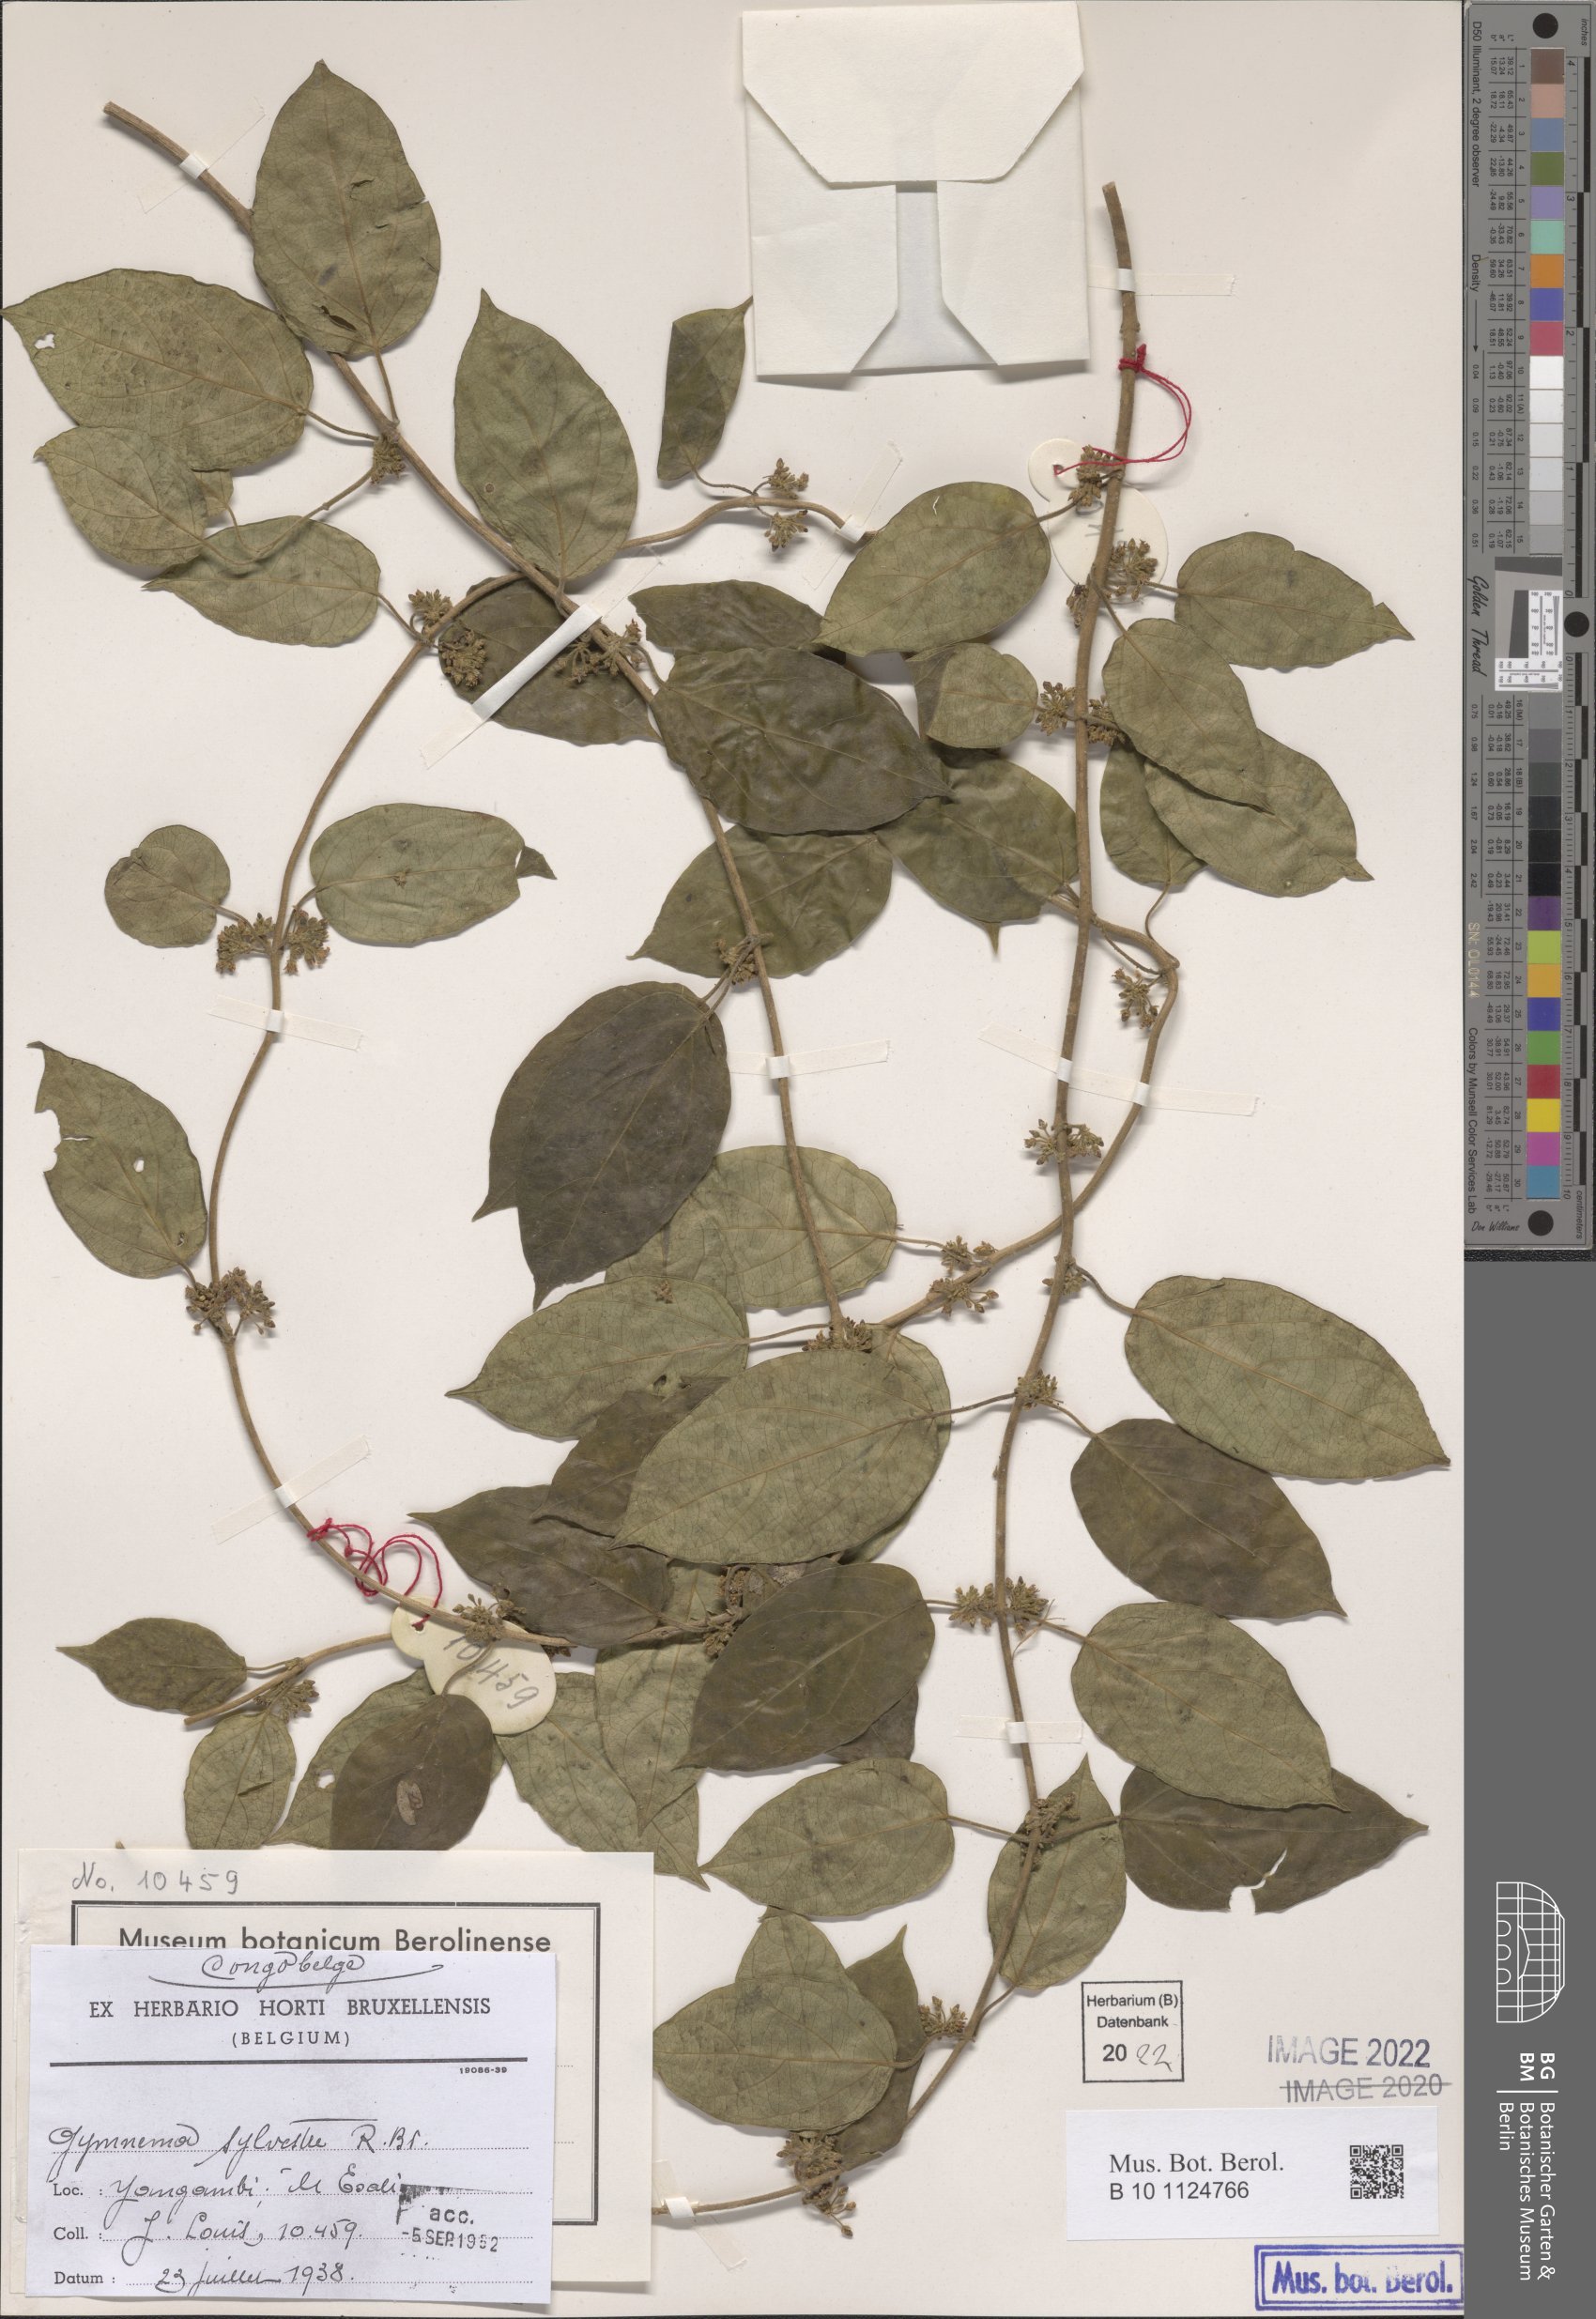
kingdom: Plantae
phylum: Tracheophyta
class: Magnoliopsida
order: Gentianales
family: Apocynaceae
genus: Gymnema
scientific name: Gymnema sylvestre
